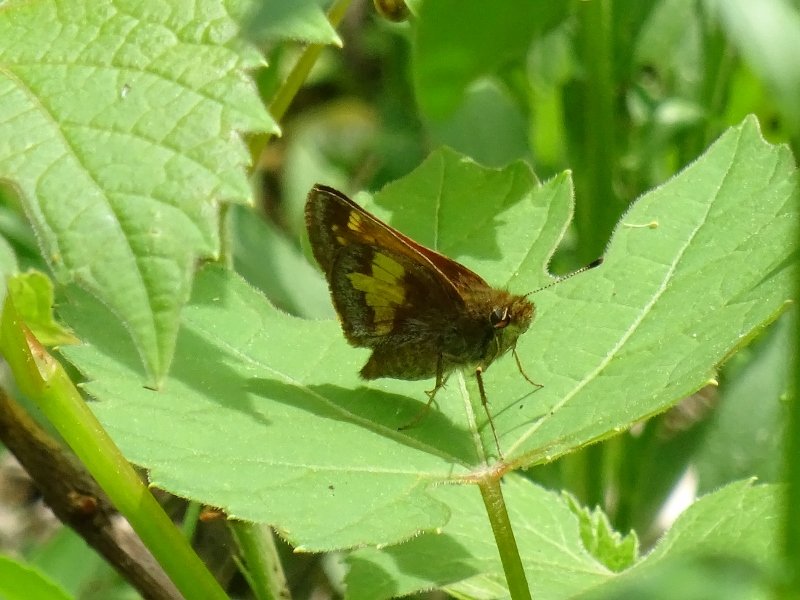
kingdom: Animalia
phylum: Arthropoda
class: Insecta
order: Lepidoptera
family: Hesperiidae
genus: Lon
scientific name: Lon hobomok
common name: Hobomok Skipper
